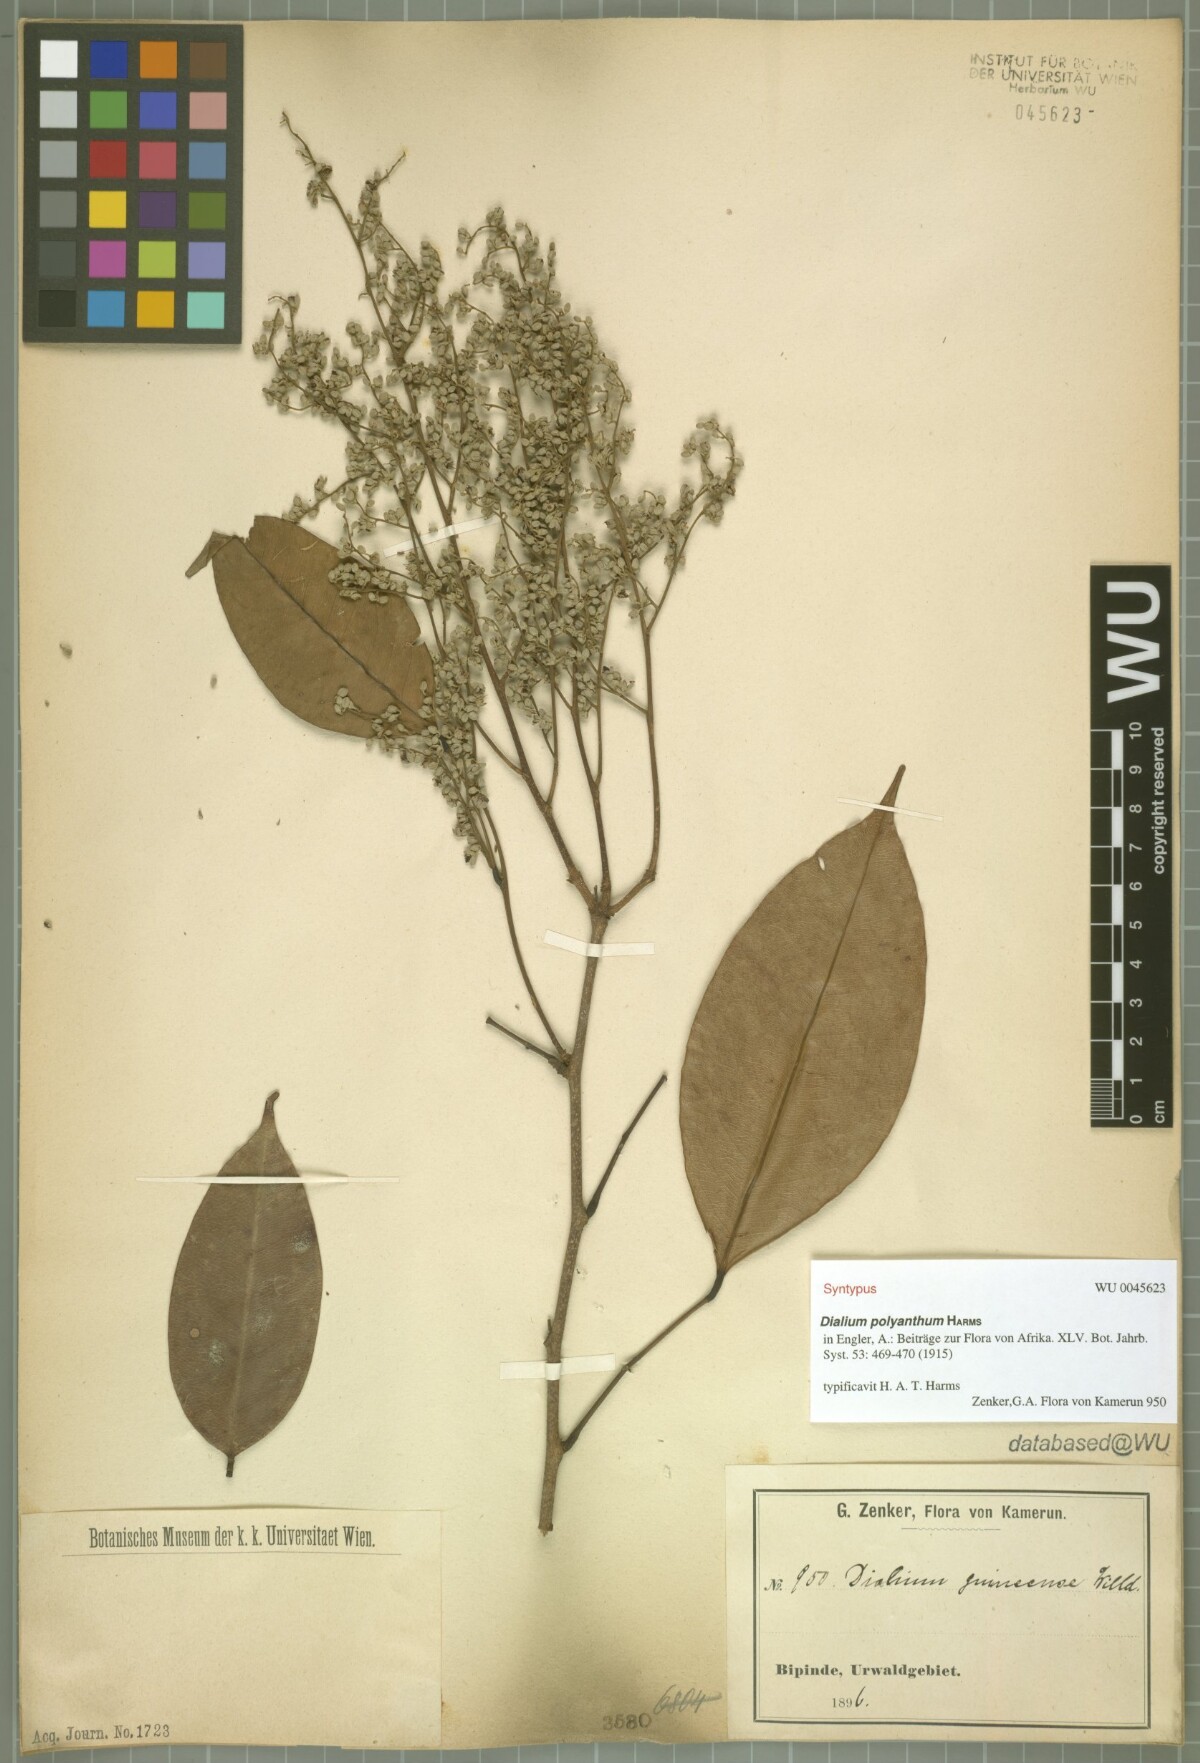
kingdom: Plantae
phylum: Tracheophyta
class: Magnoliopsida
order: Fabales
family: Fabaceae
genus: Dialium
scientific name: Dialium polyanthum
